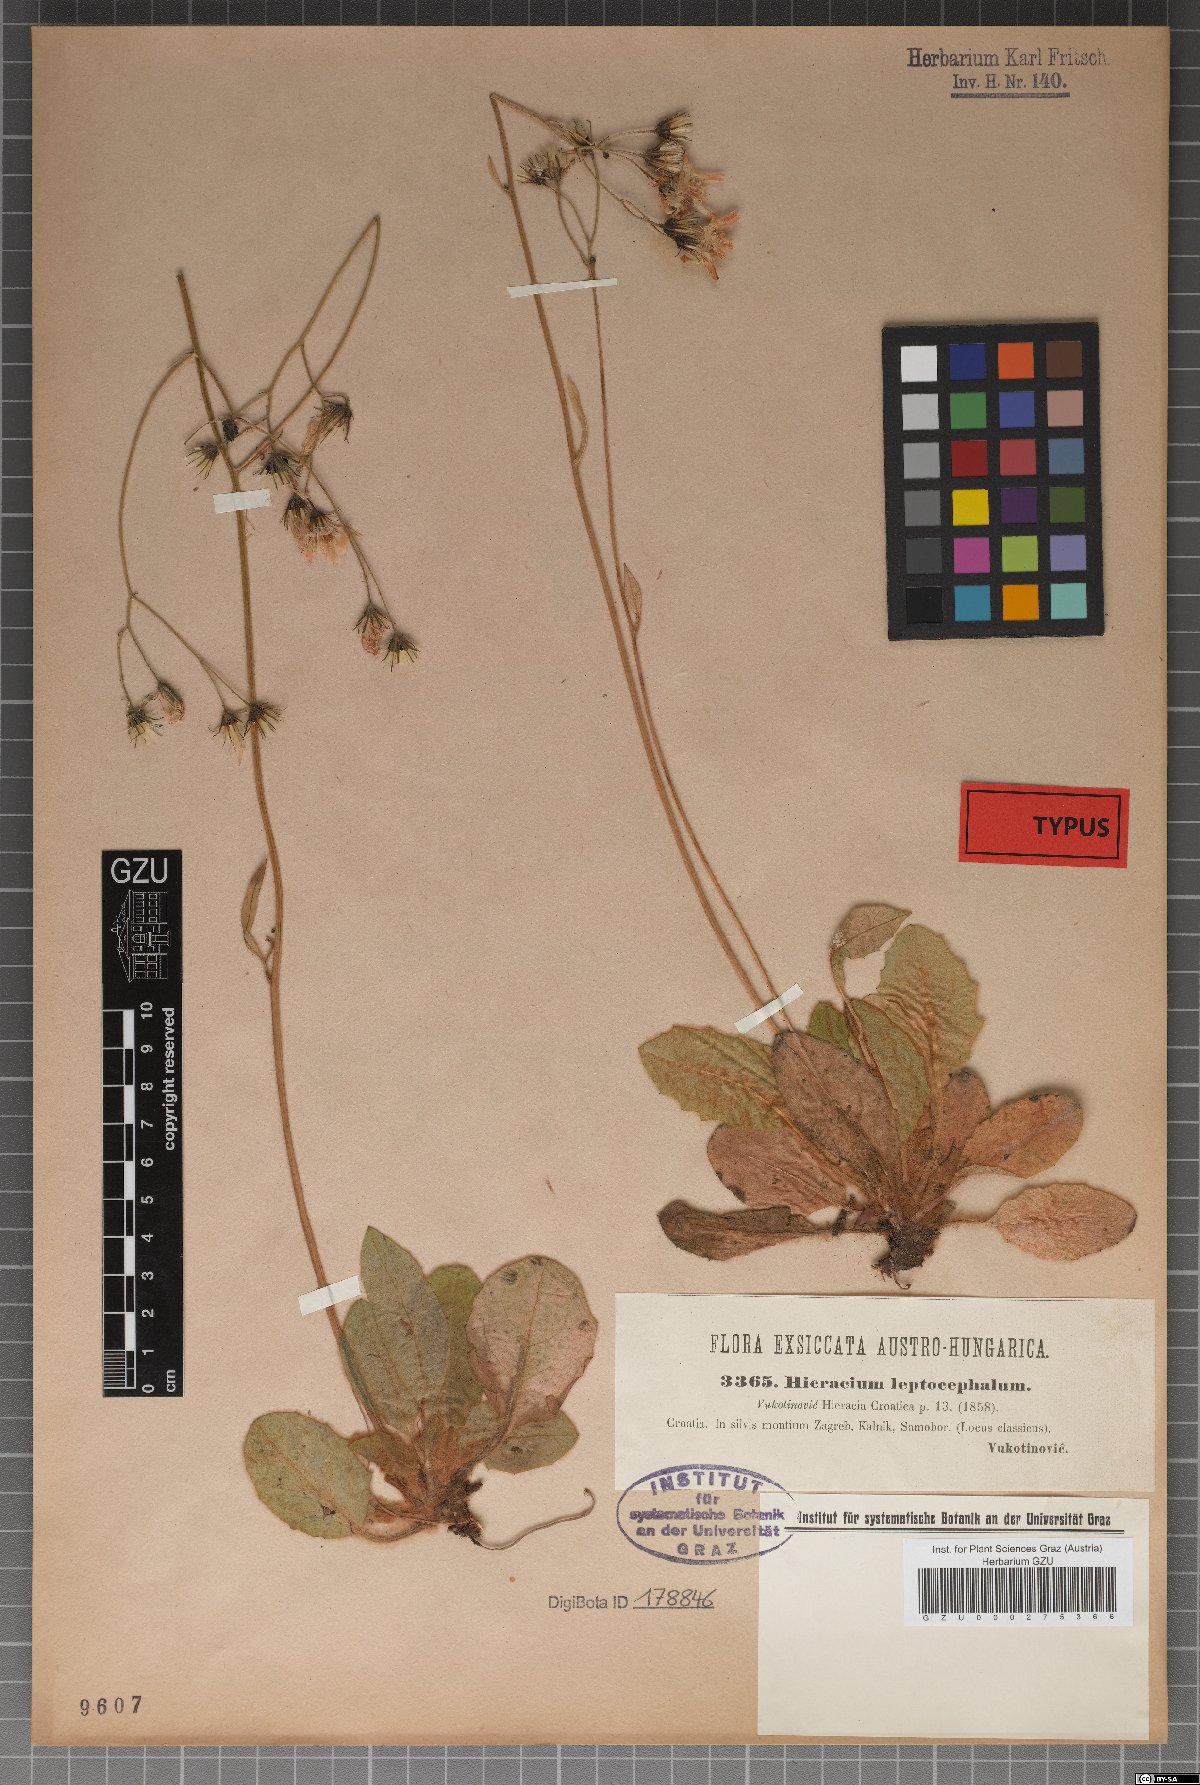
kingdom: Plantae
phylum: Tracheophyta
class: Magnoliopsida
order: Asterales
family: Asteraceae
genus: Hieracium
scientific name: Hieracium leptocephalum
